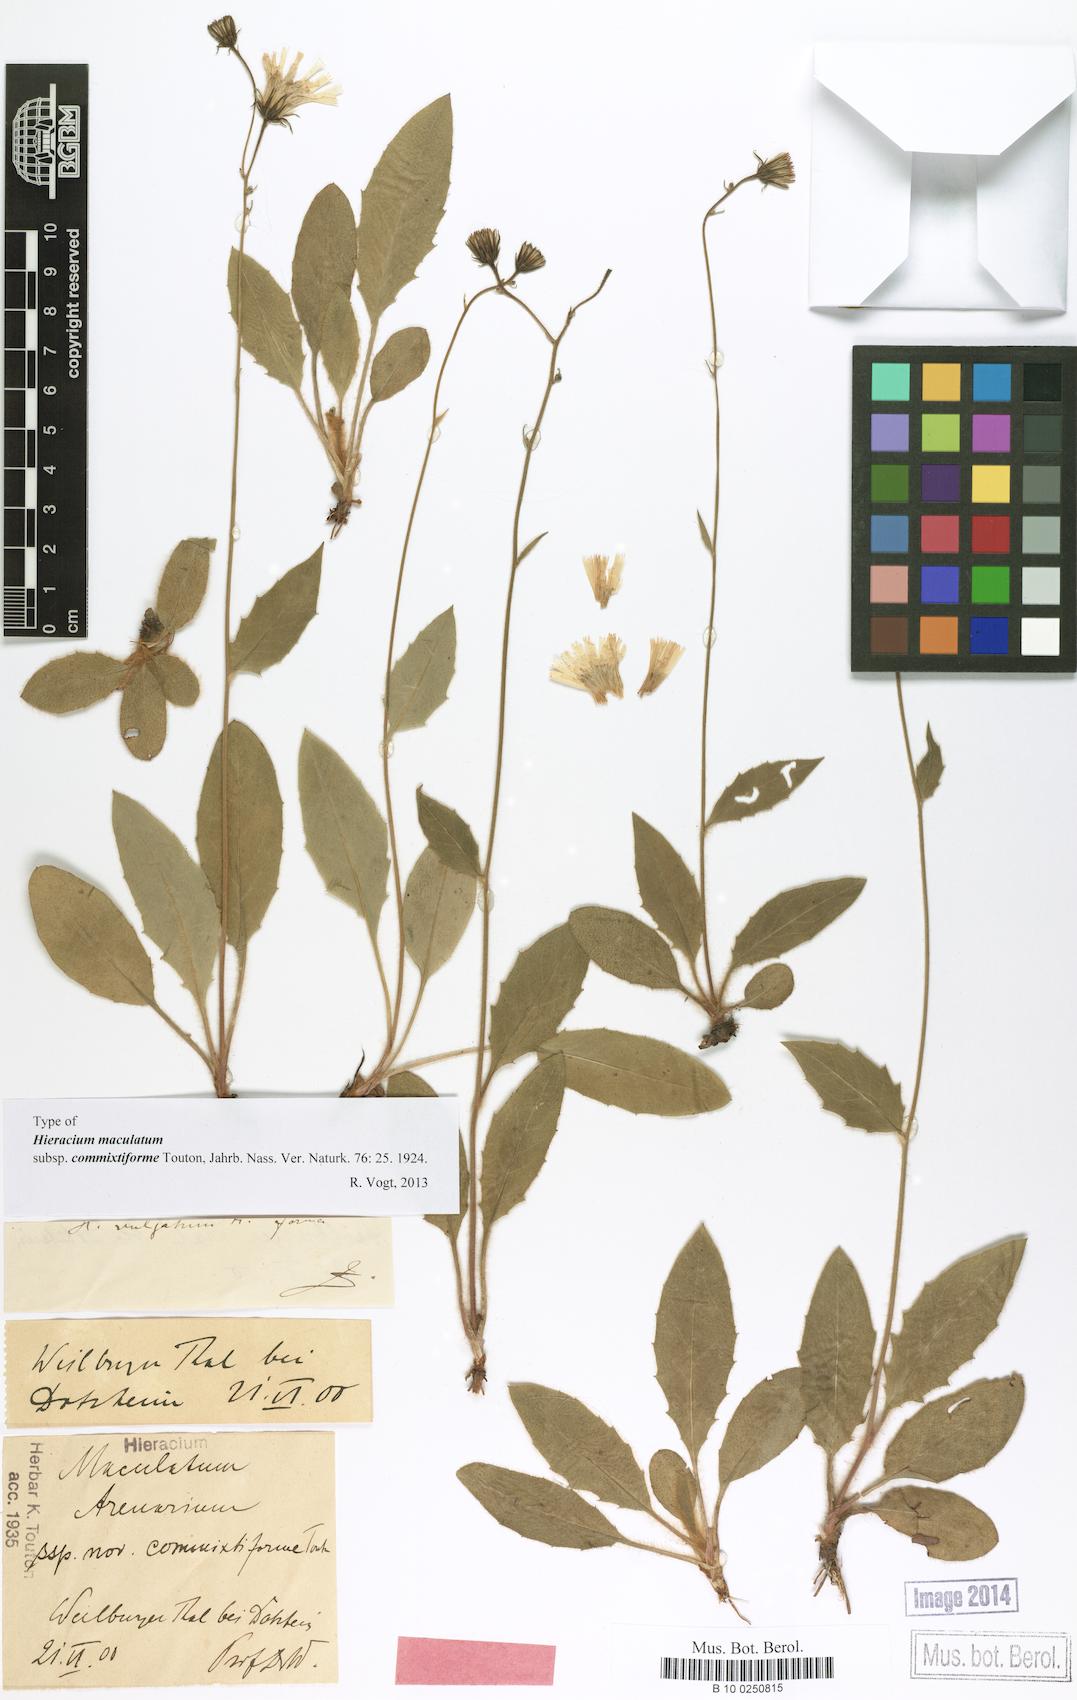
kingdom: Plantae
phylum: Tracheophyta
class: Magnoliopsida
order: Asterales
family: Asteraceae
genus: Hieracium
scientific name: Hieracium maculatum
